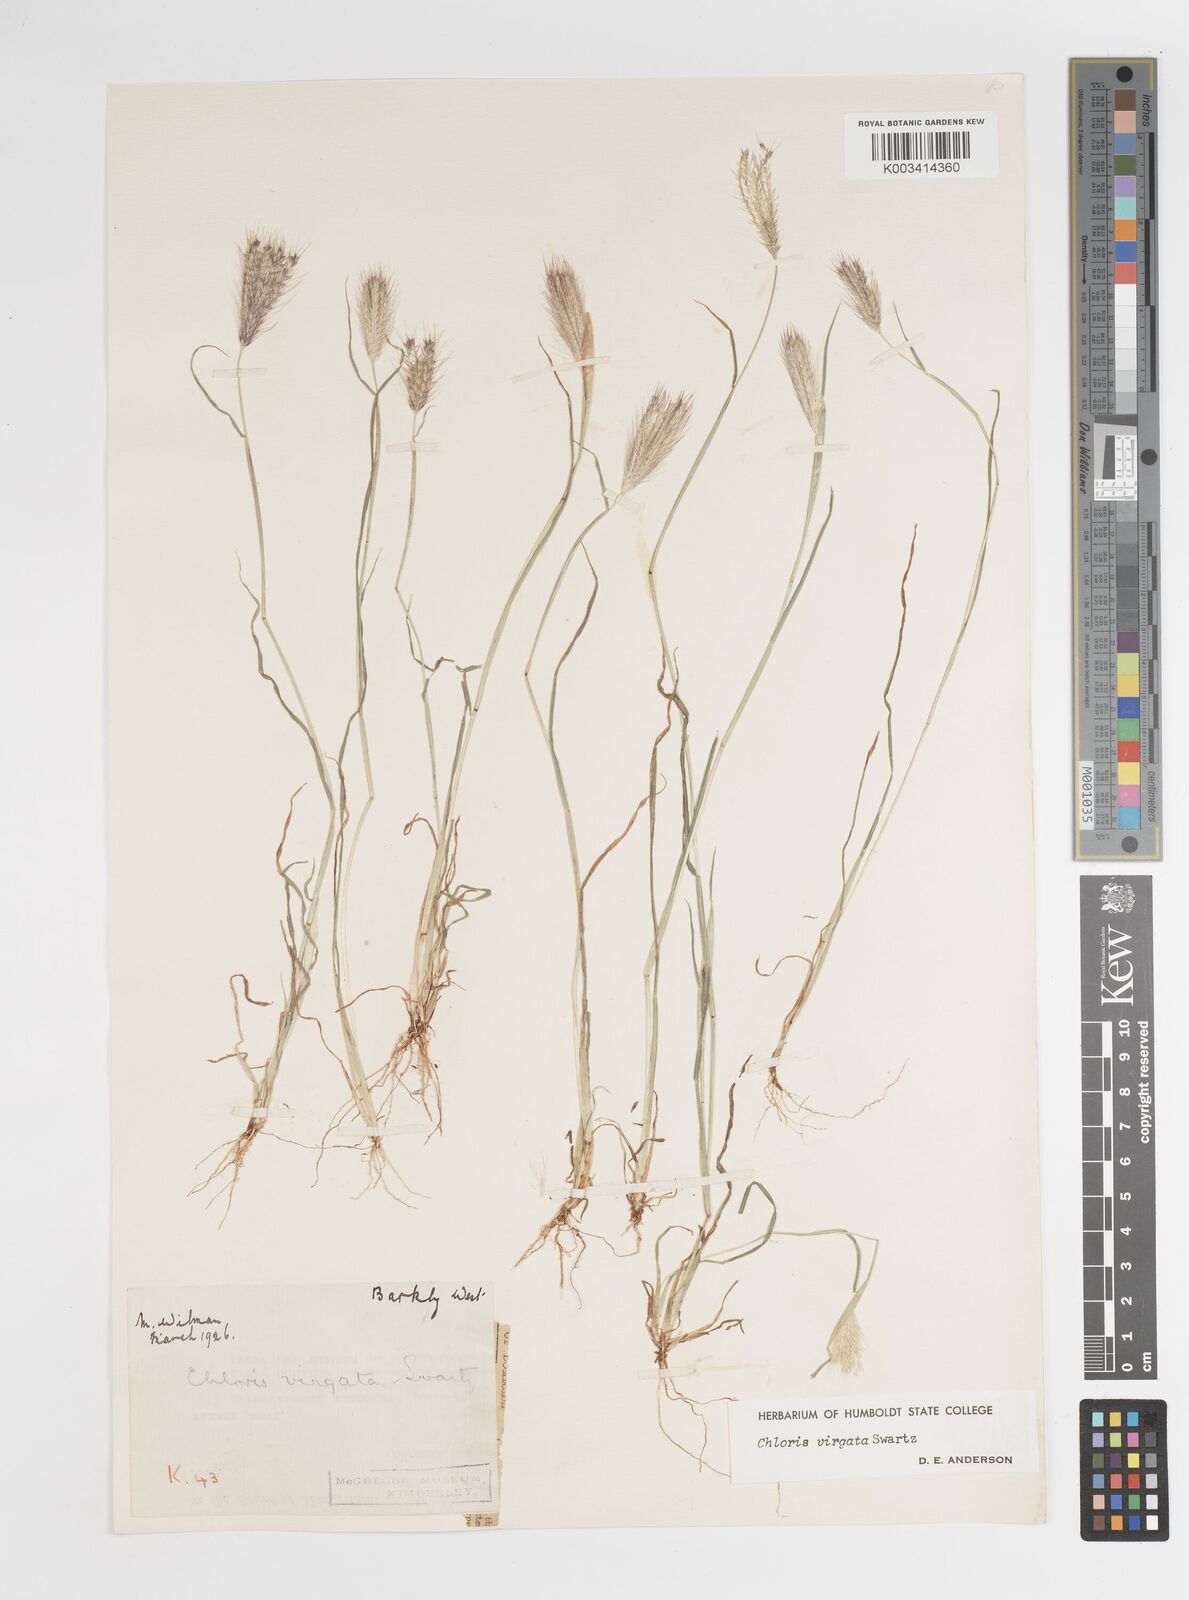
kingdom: Plantae
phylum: Tracheophyta
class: Liliopsida
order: Poales
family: Poaceae
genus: Chloris
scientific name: Chloris virgata
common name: Feathery rhodes-grass
